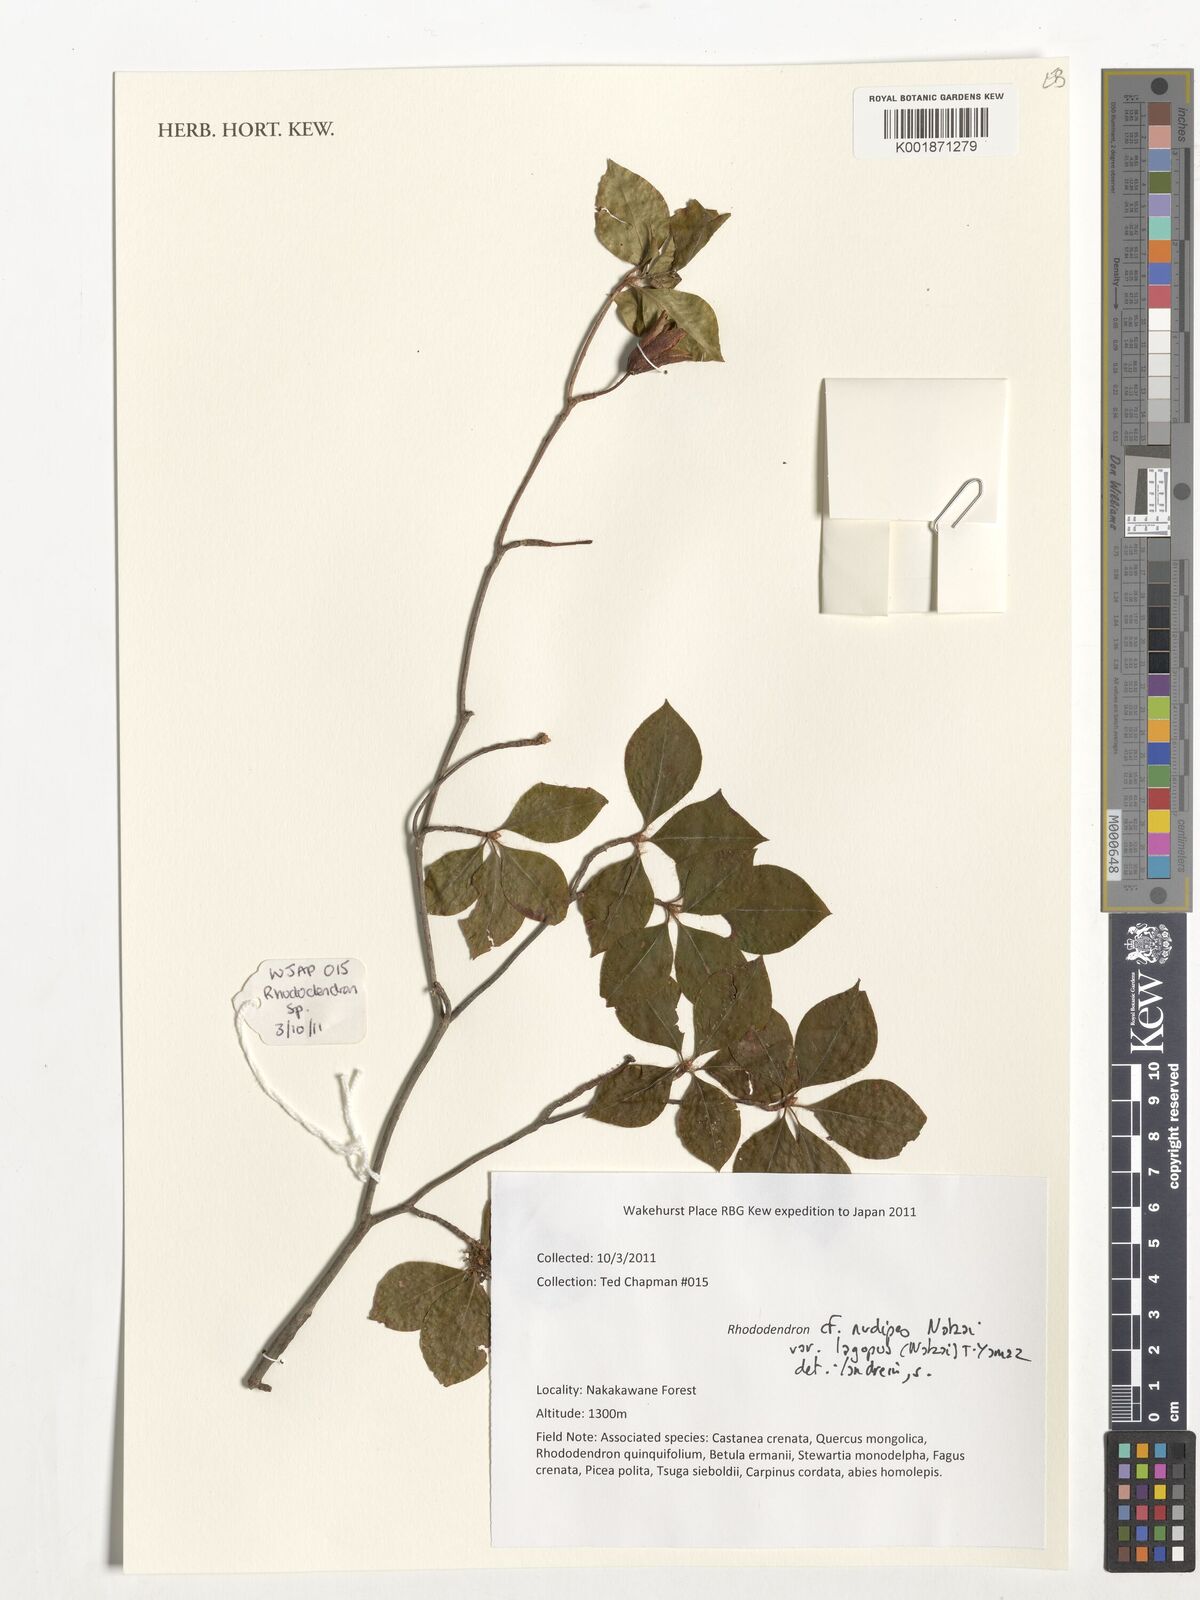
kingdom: Plantae
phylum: Tracheophyta
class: Magnoliopsida
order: Ericales
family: Ericaceae
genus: Rhododendron
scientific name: Rhododendron lagopus
